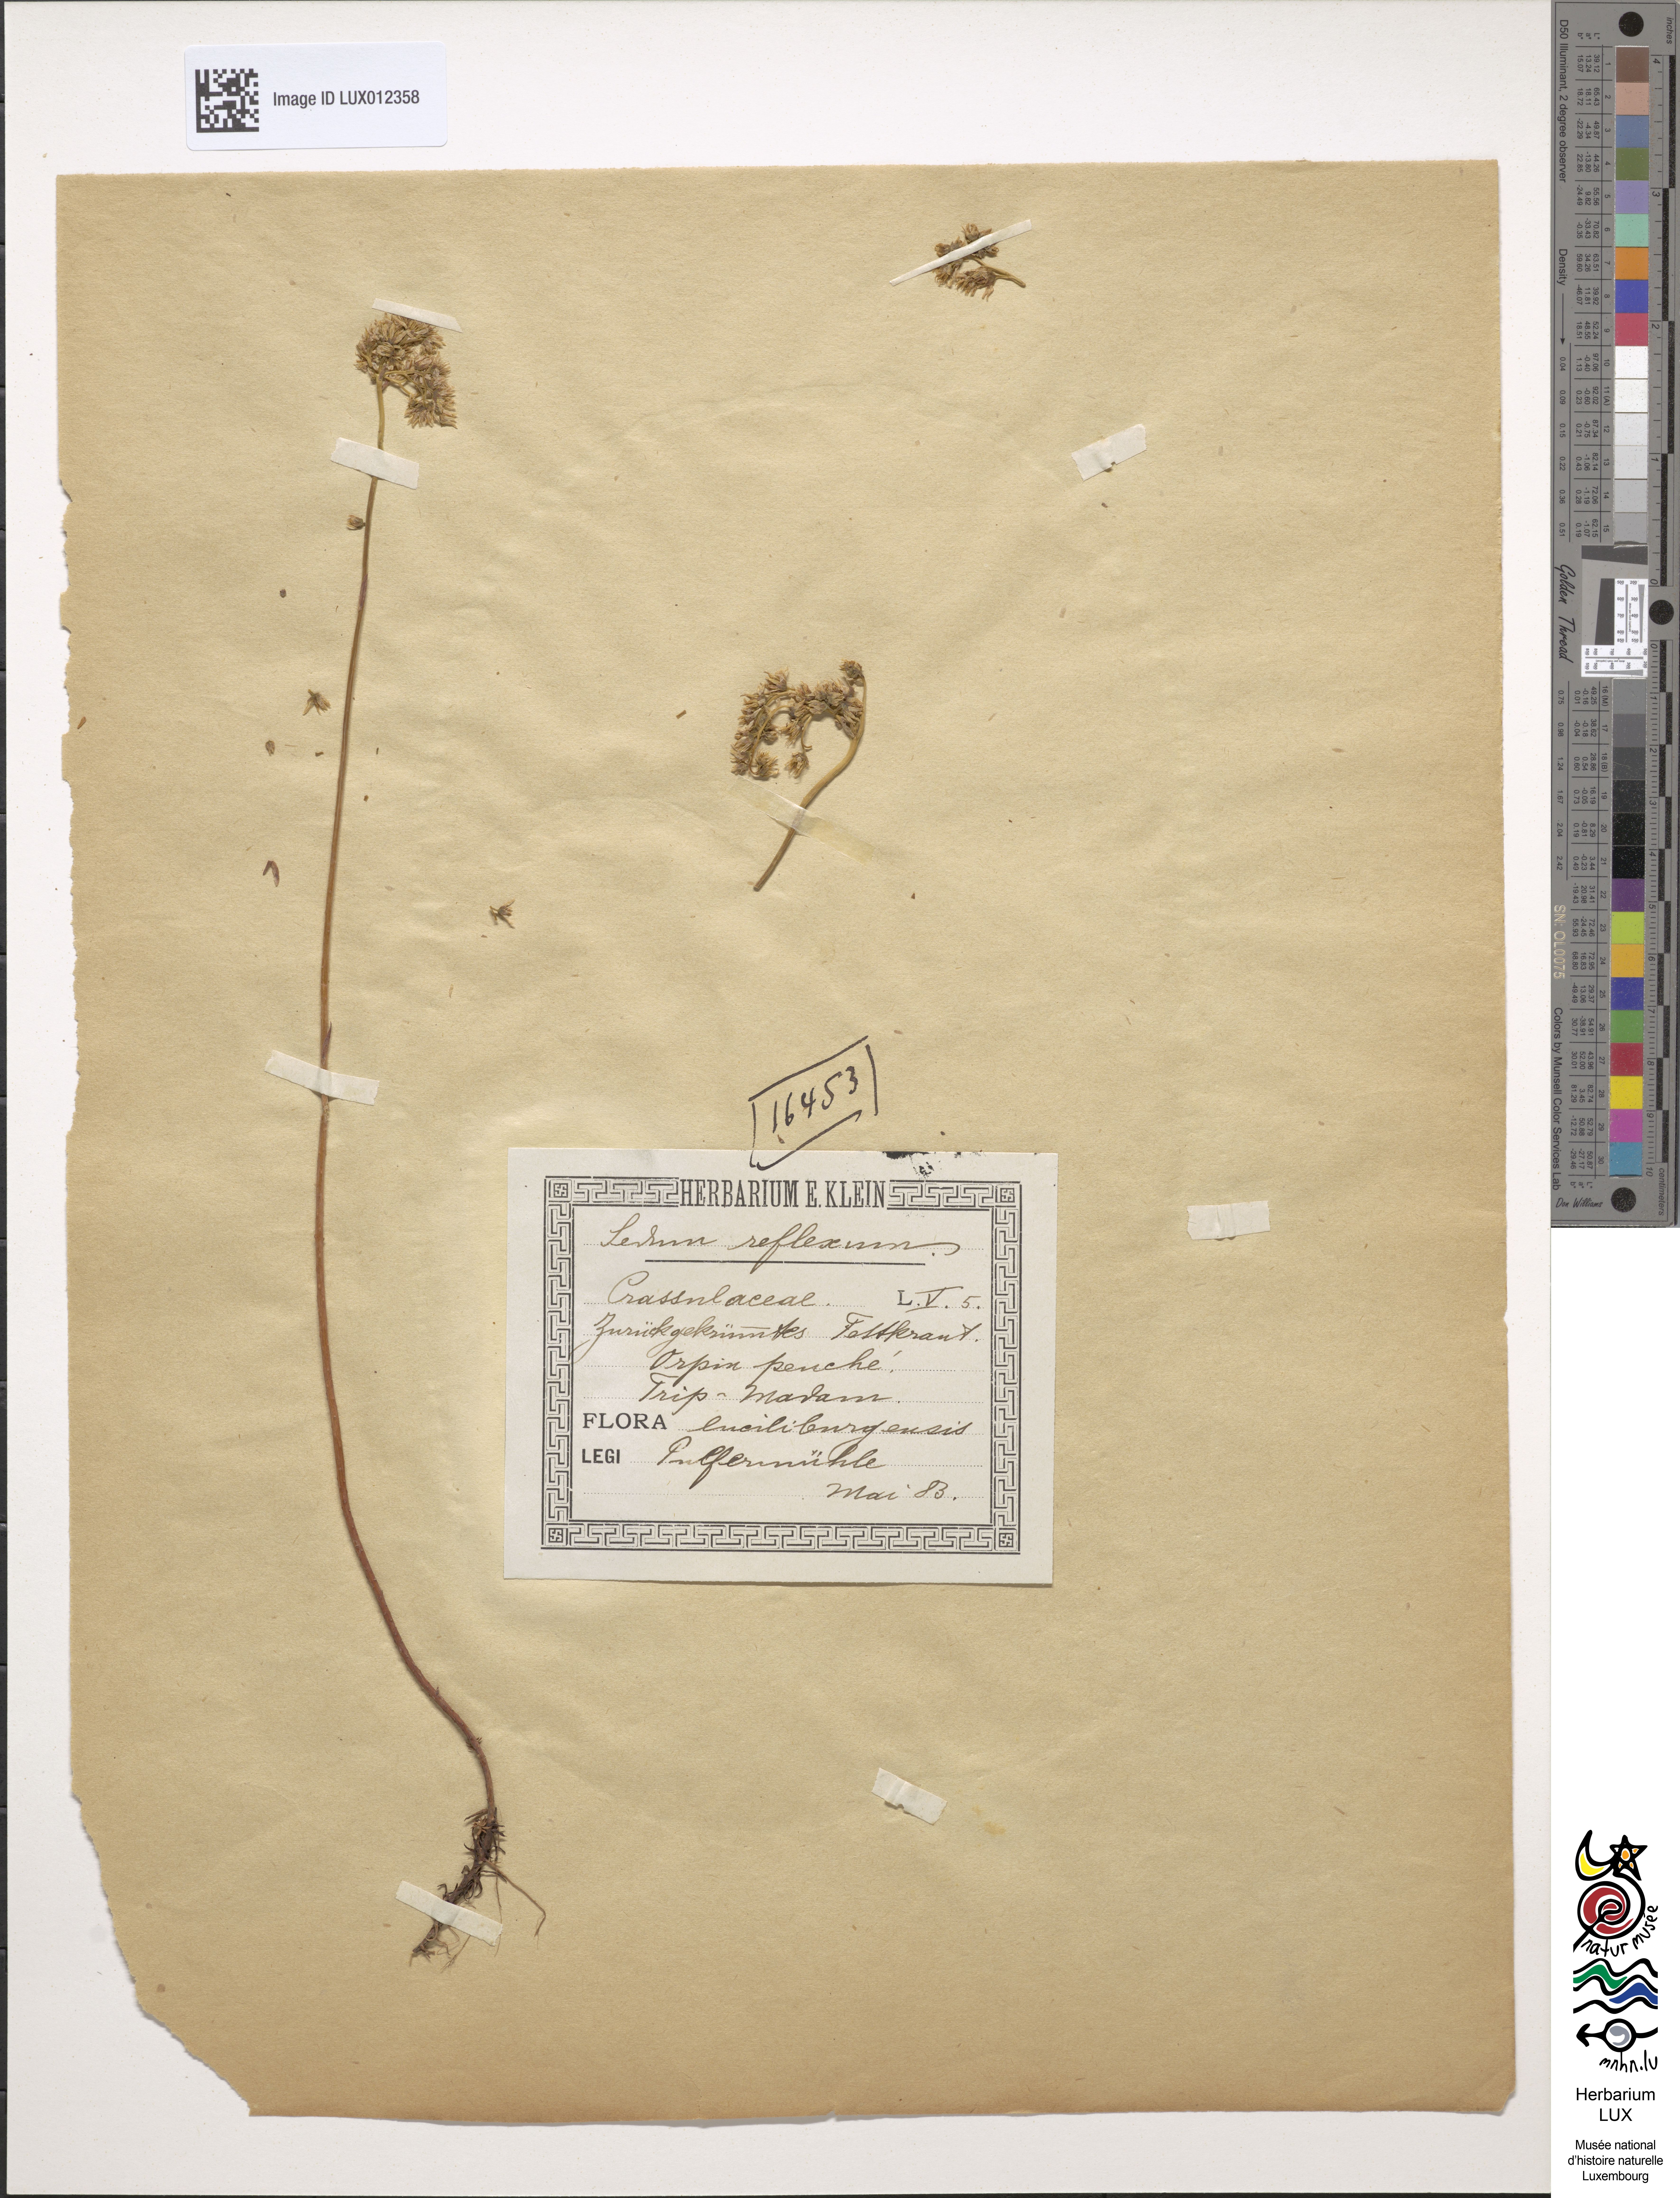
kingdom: Plantae
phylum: Tracheophyta
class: Magnoliopsida
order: Saxifragales
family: Crassulaceae
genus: Petrosedum
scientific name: Petrosedum rupestre
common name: Jenny's stonecrop
